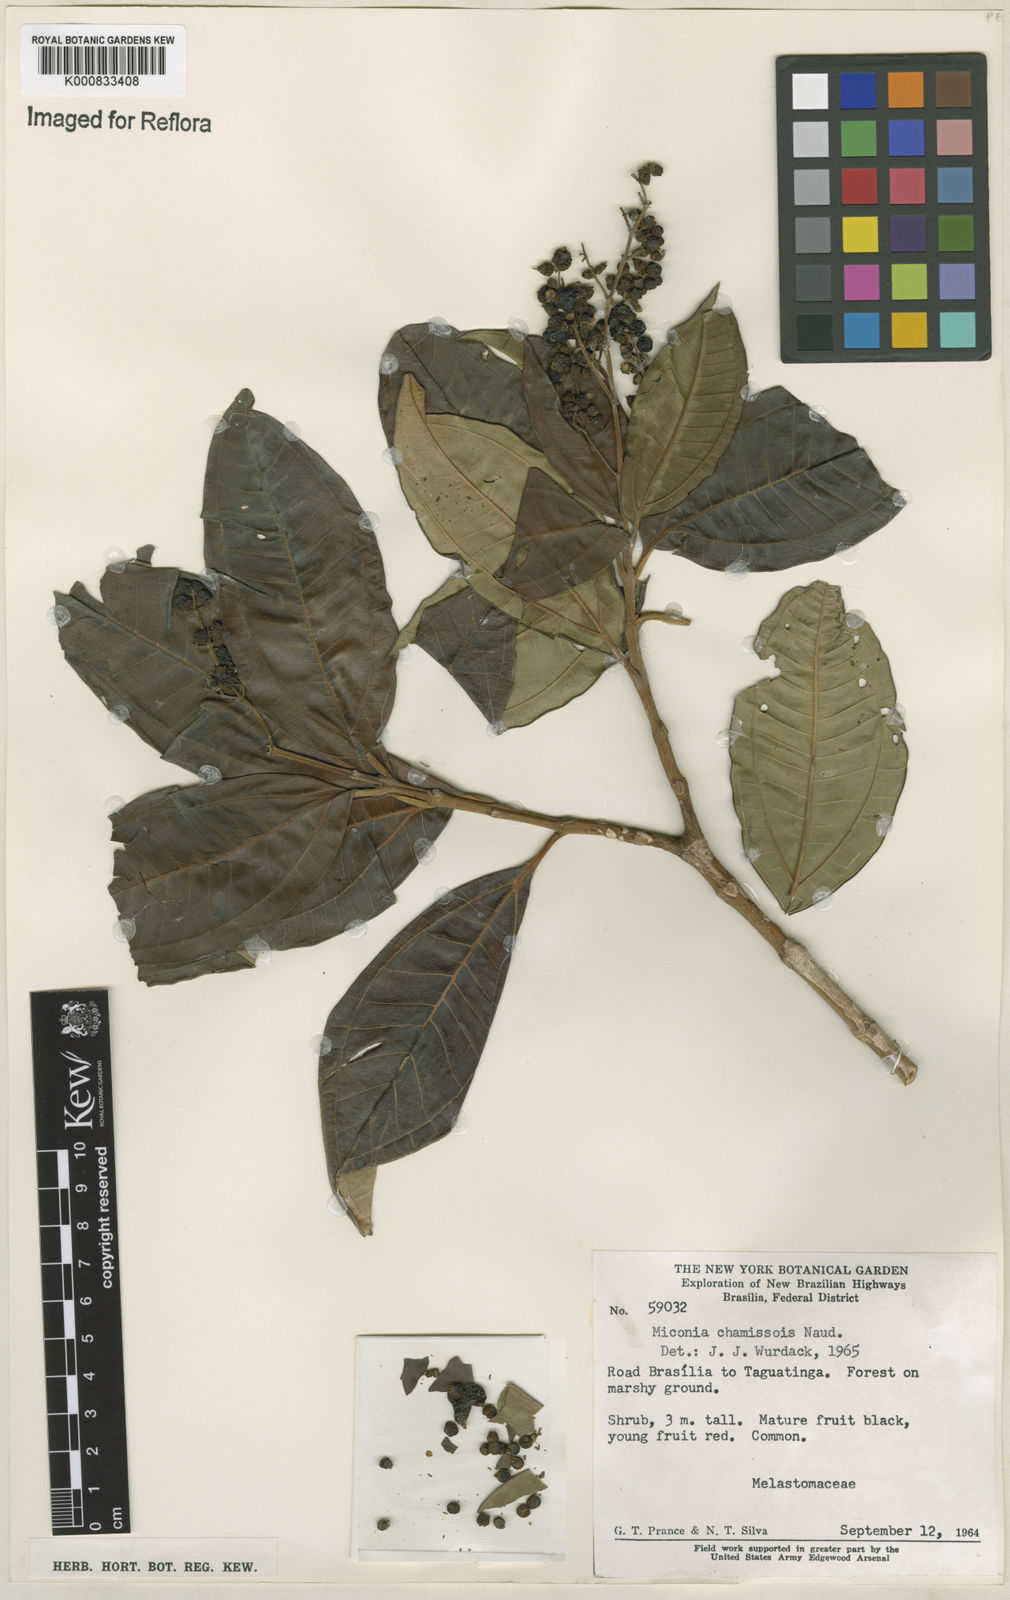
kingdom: Plantae
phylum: Tracheophyta
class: Magnoliopsida
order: Myrtales
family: Melastomataceae
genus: Miconia
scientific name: Miconia chamissois
